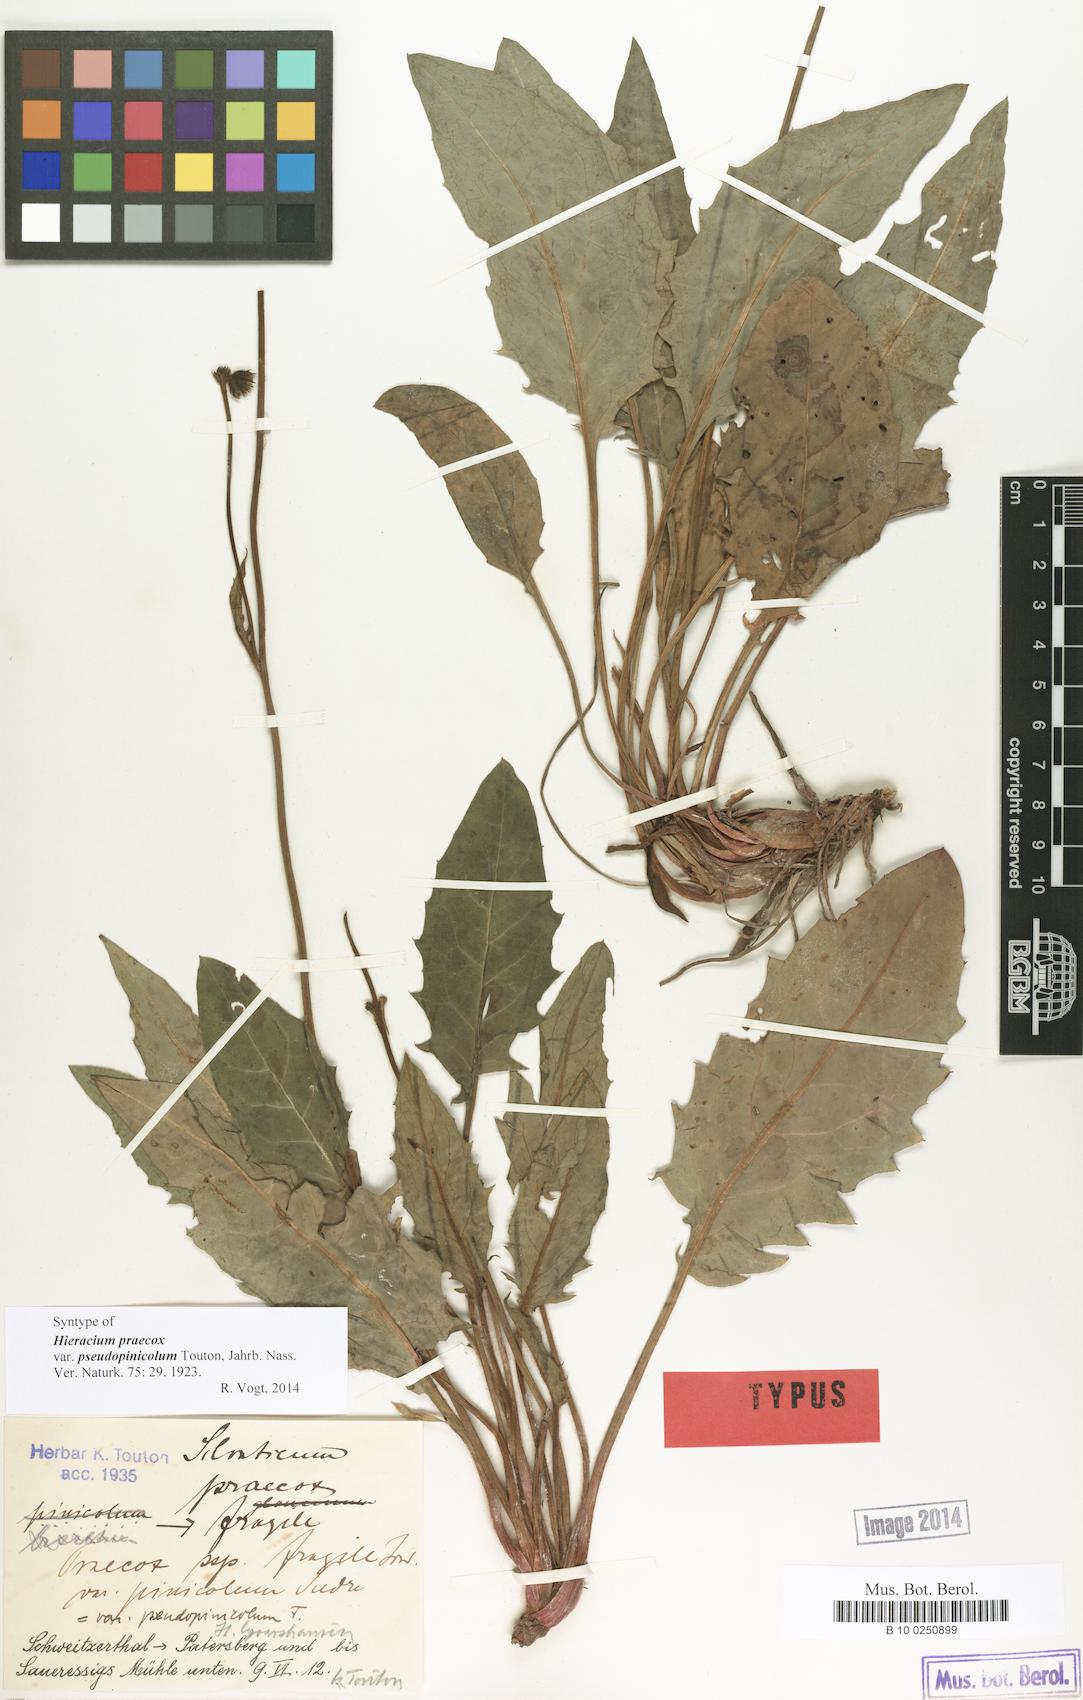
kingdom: Plantae
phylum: Tracheophyta
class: Magnoliopsida
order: Asterales
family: Asteraceae
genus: Hieracium
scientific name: Hieracium praecox
